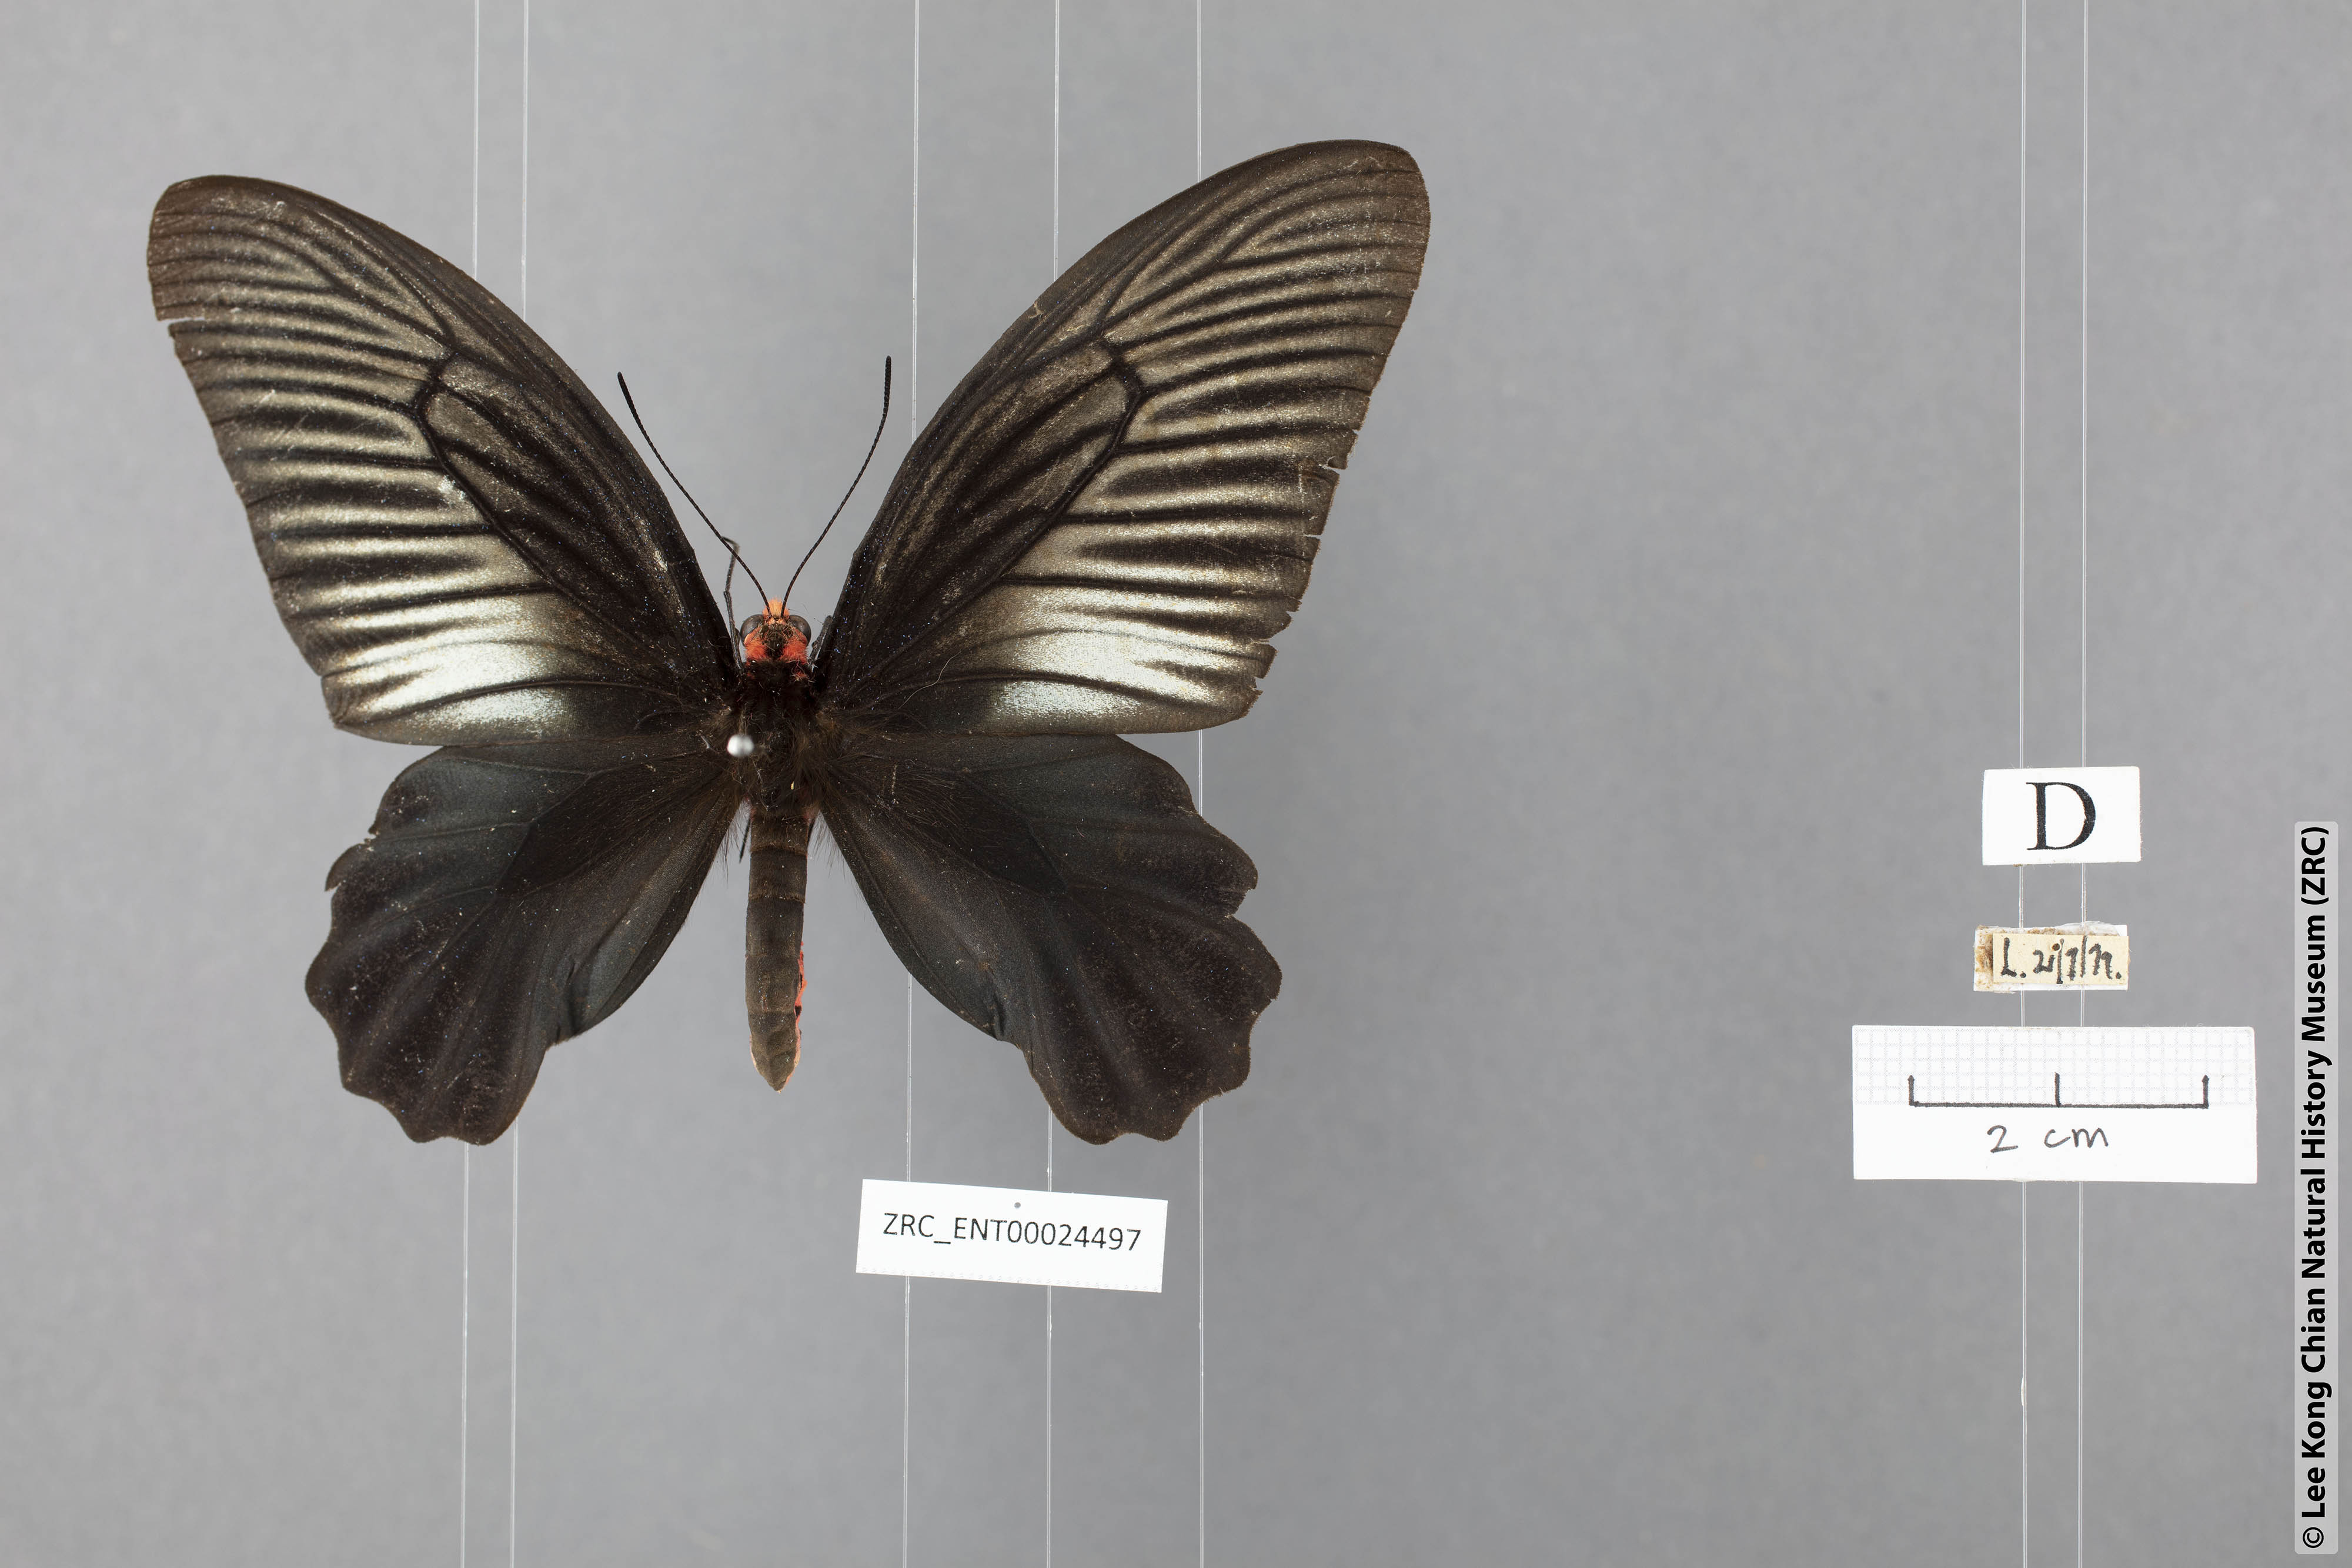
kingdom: Animalia
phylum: Arthropoda
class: Insecta
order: Lepidoptera
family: Papilionidae
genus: Atrophaneura
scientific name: Atrophaneura varuna
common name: Common batwing
